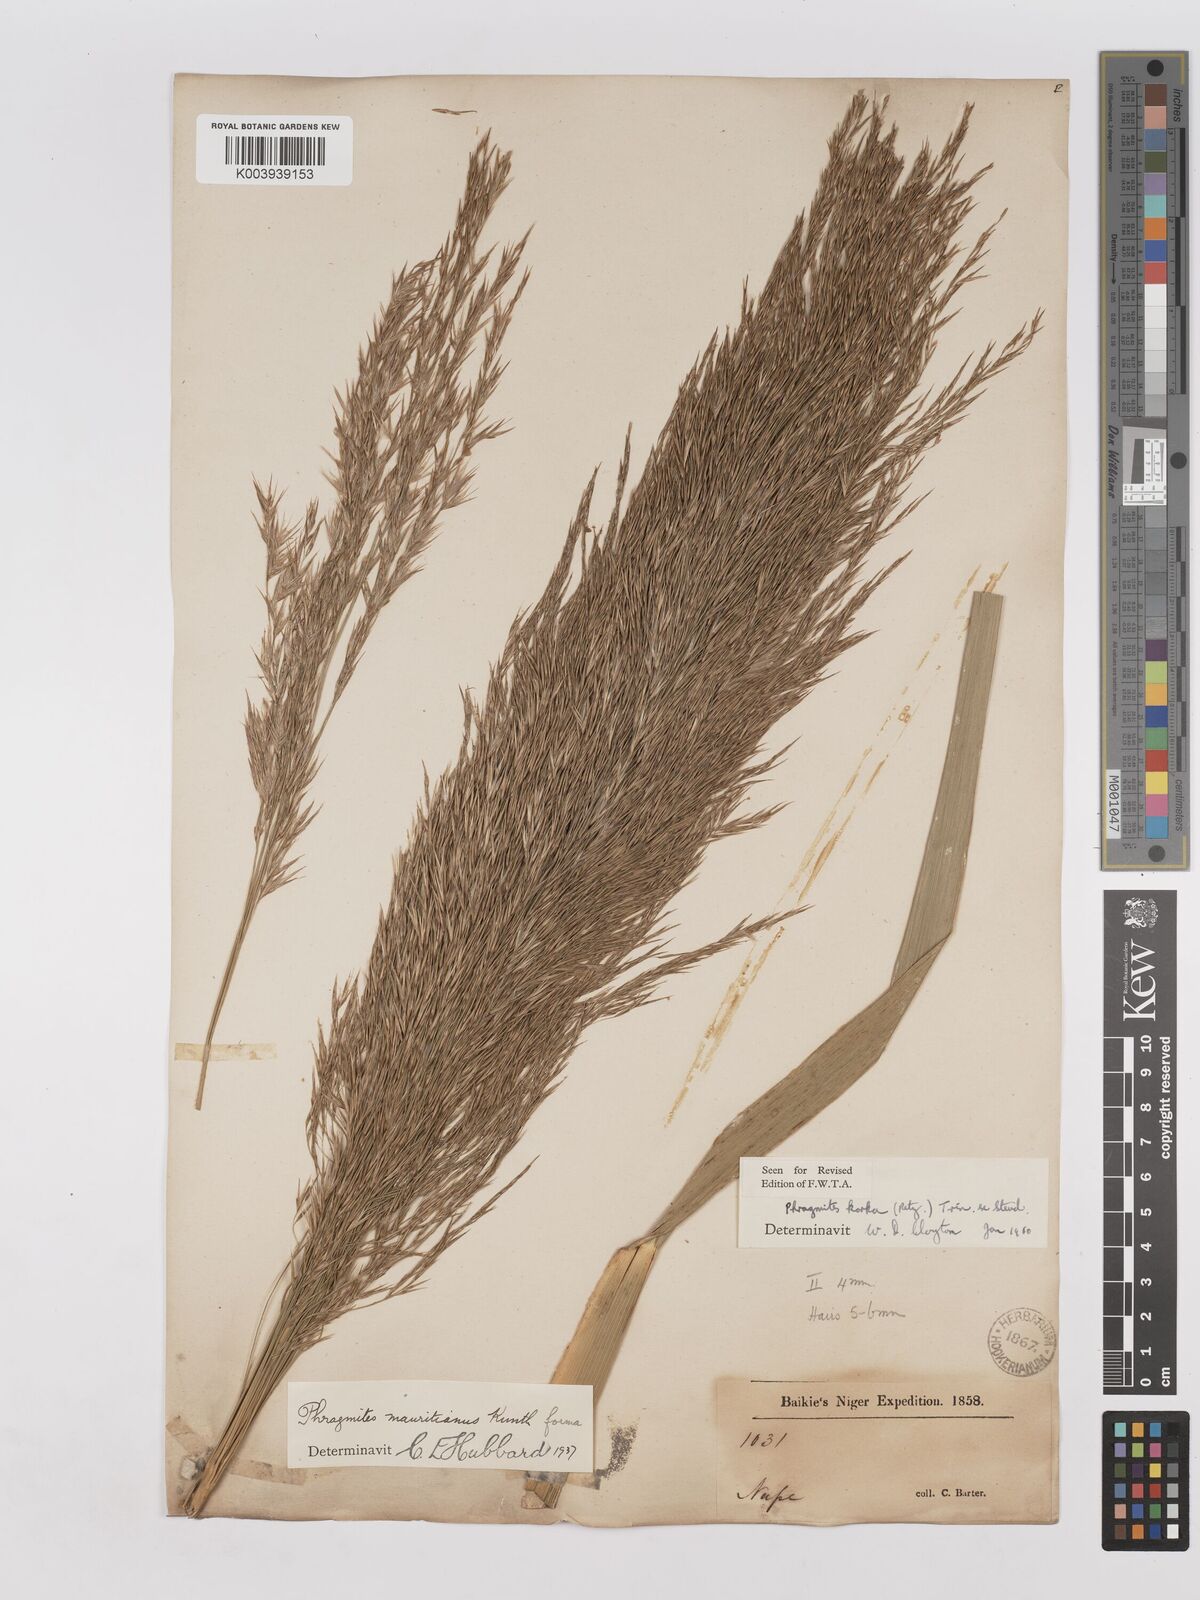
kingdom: Plantae
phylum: Tracheophyta
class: Liliopsida
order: Poales
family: Poaceae
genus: Phragmites
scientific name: Phragmites karka
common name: Tropical reed
